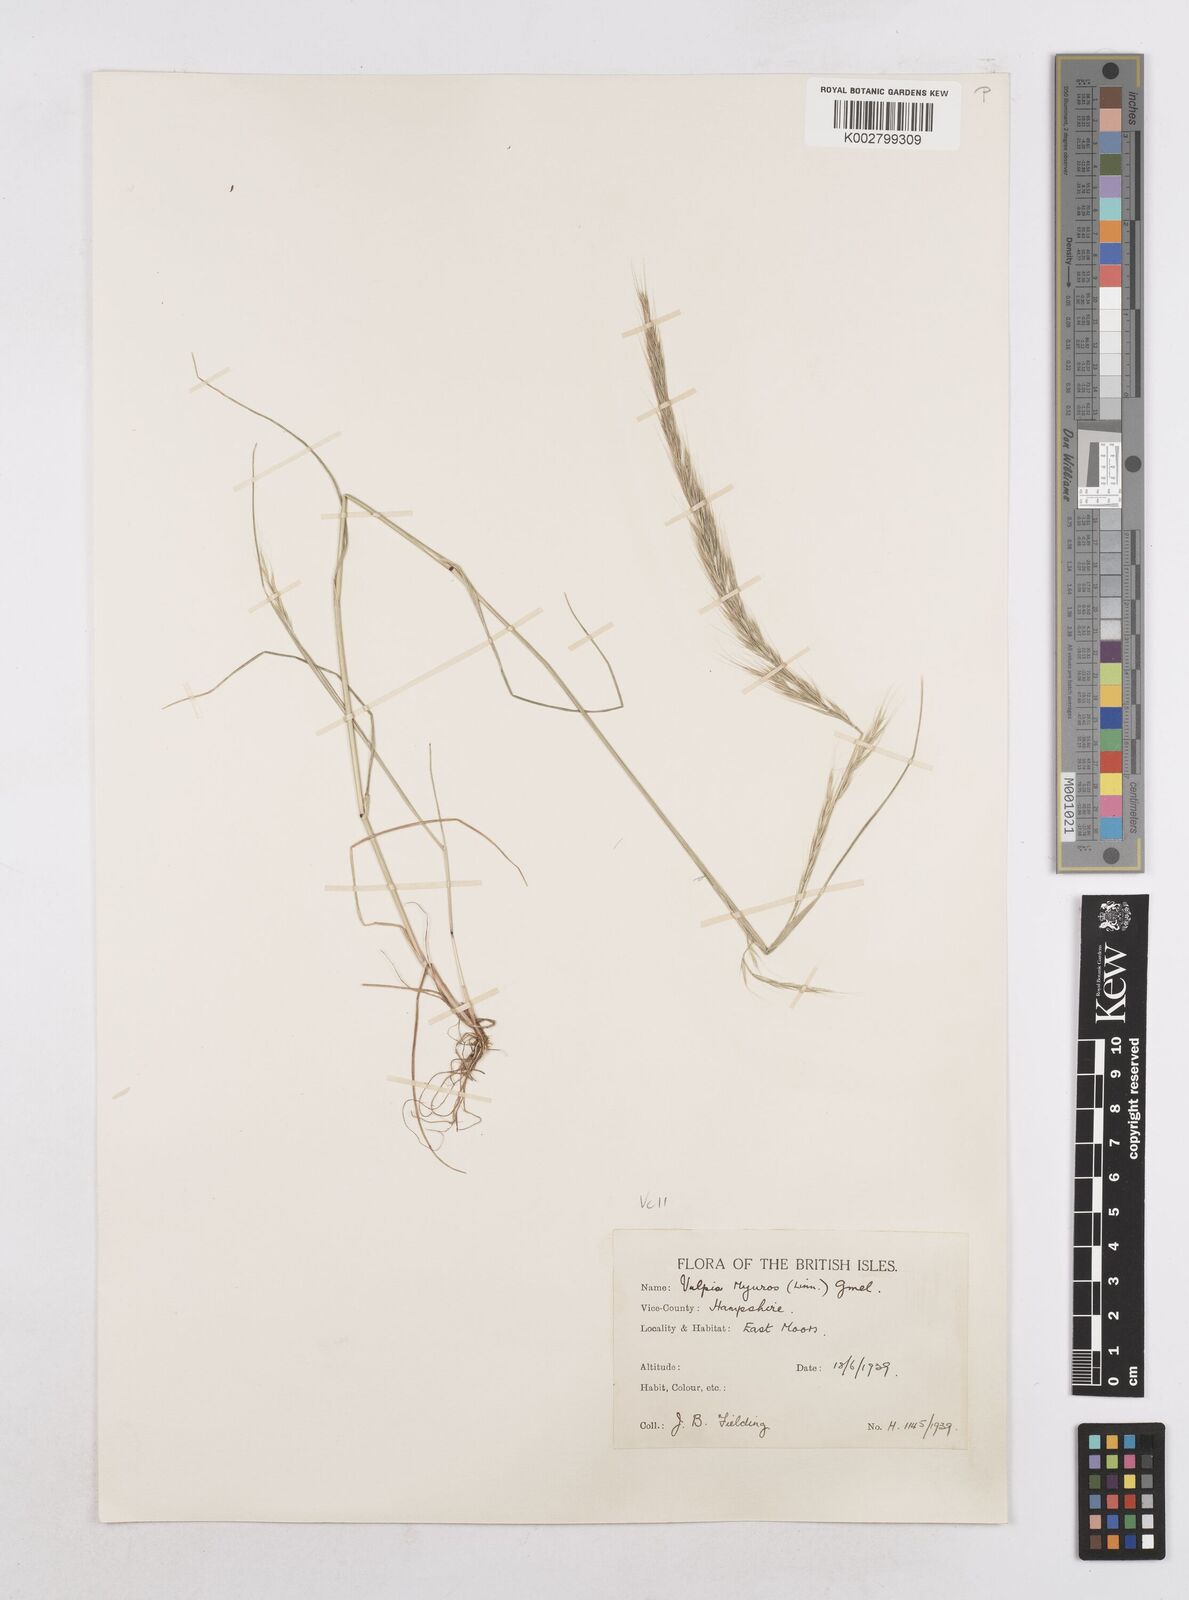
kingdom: Plantae
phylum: Tracheophyta
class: Liliopsida
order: Poales
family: Poaceae
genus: Festuca
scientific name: Festuca myuros
